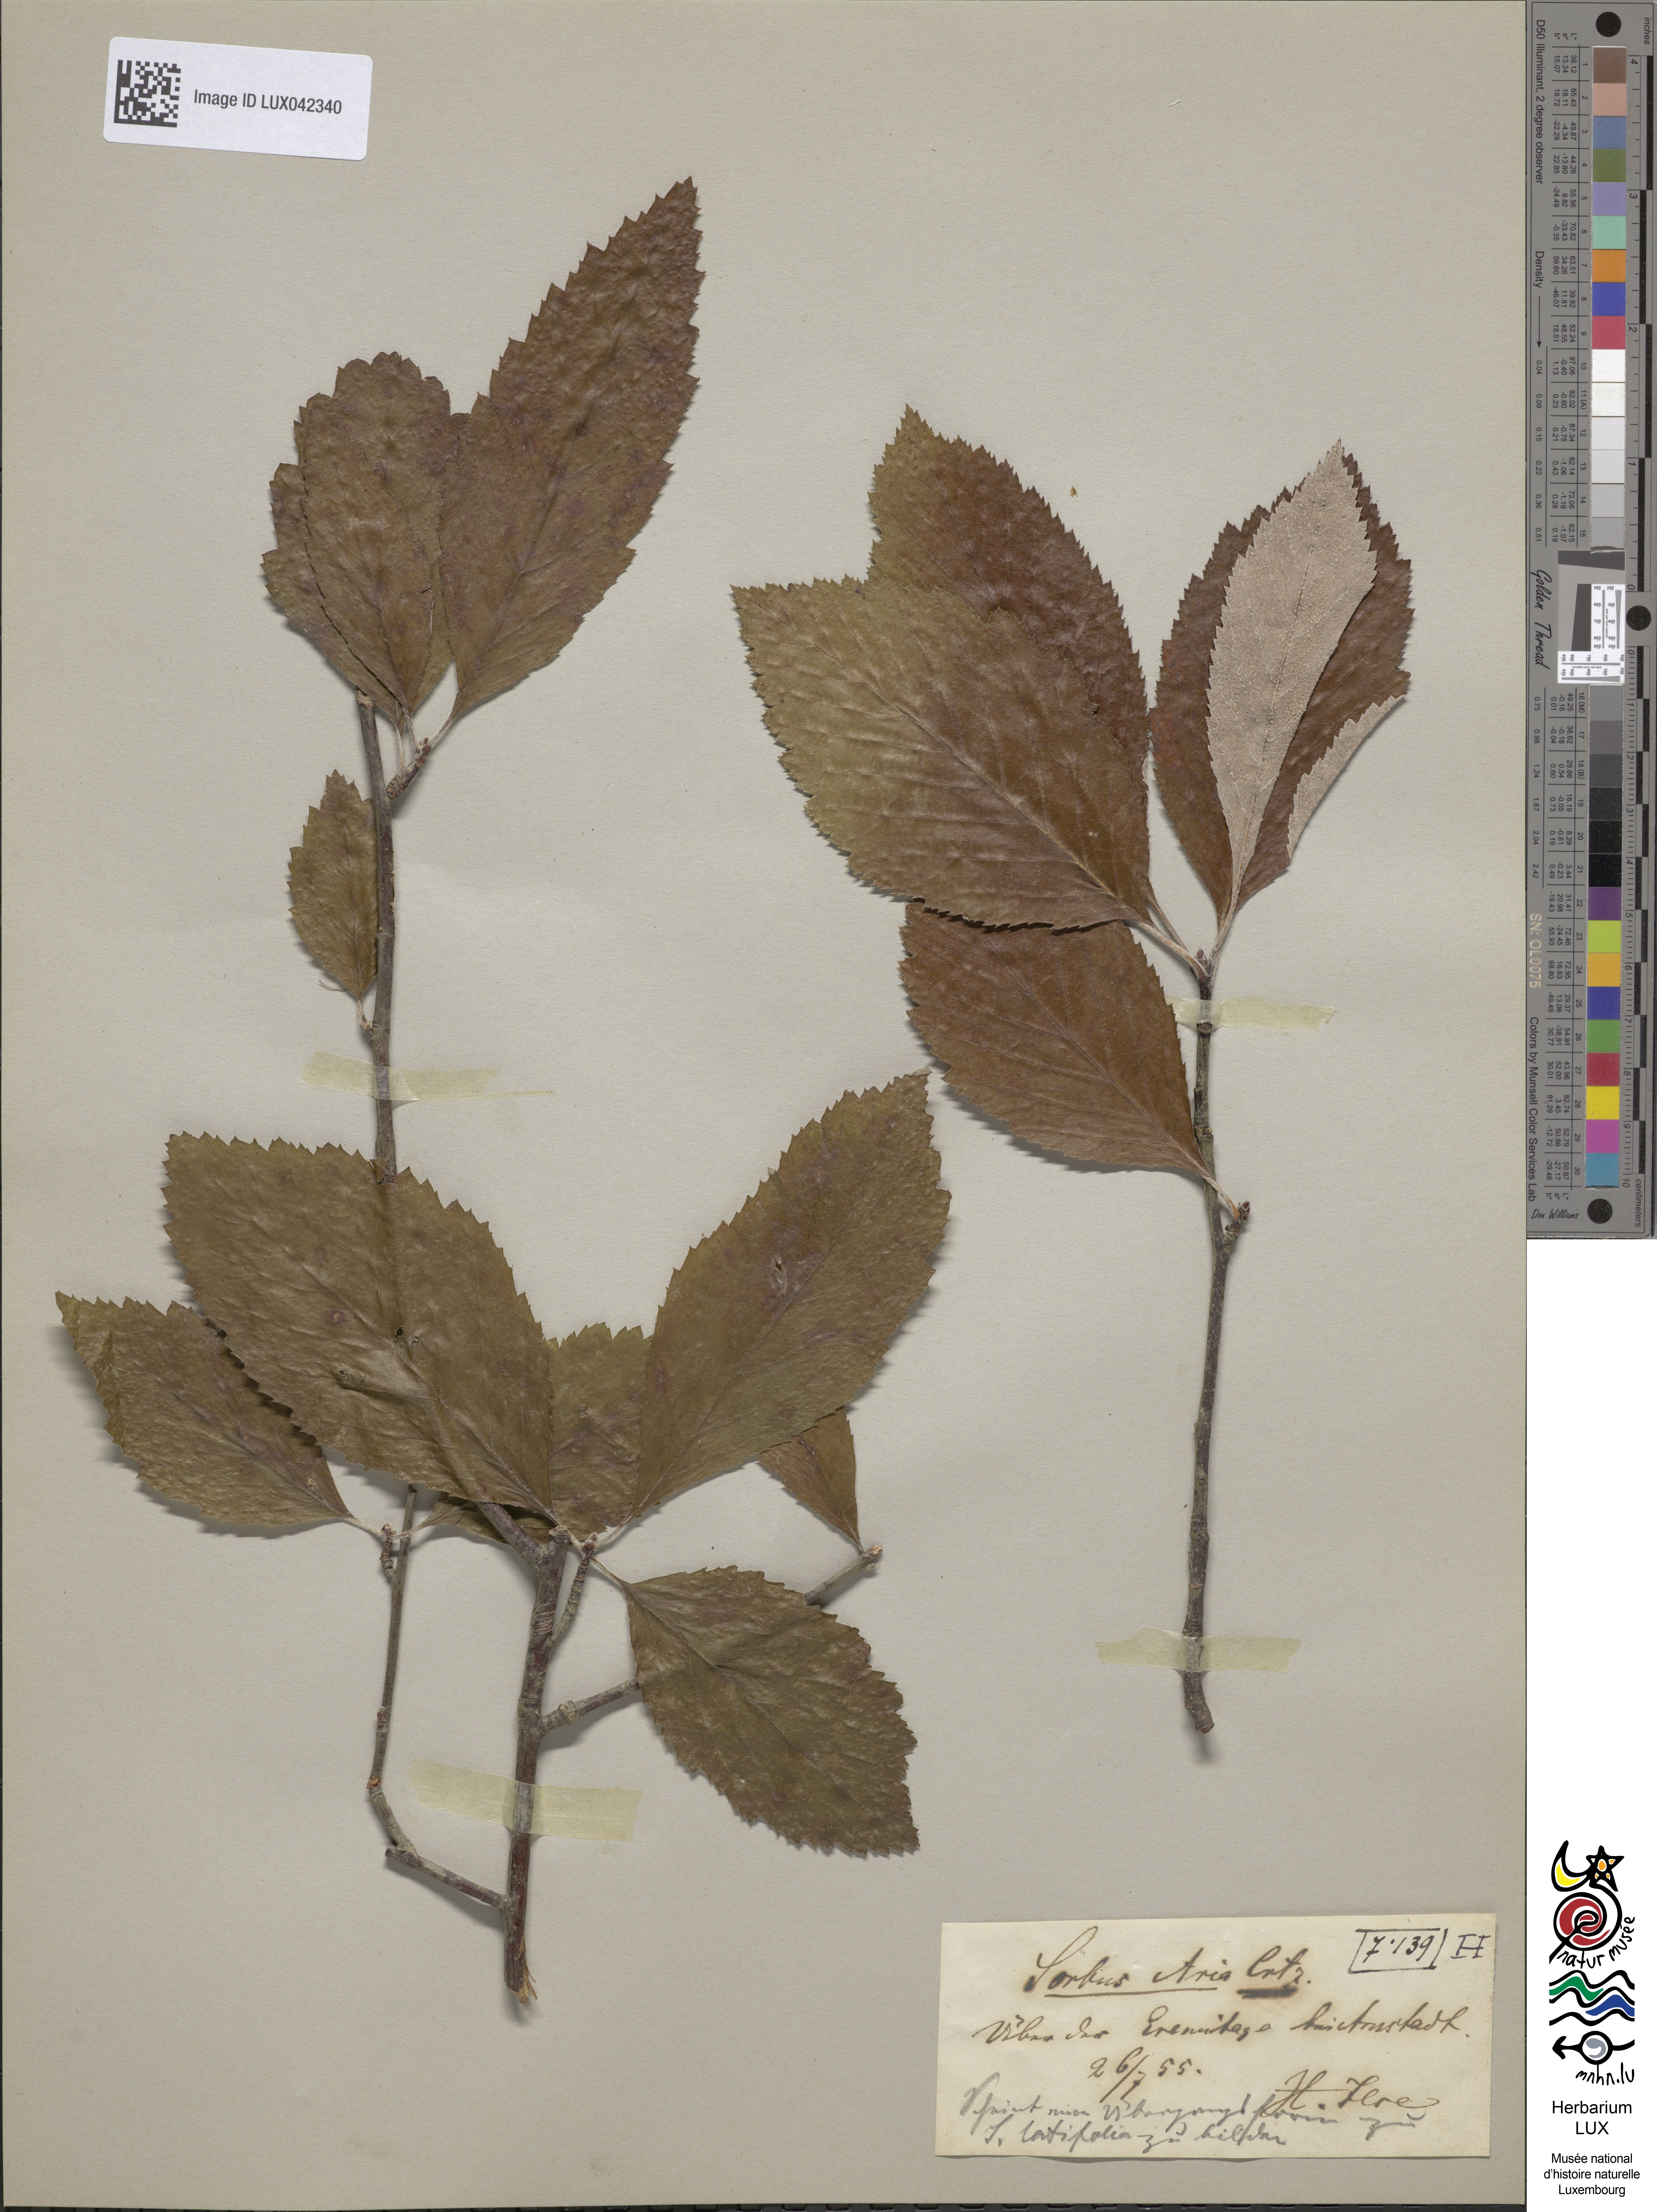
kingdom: Plantae
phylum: Tracheophyta
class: Magnoliopsida
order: Rosales
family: Rosaceae
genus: Aria
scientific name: Aria edulis
